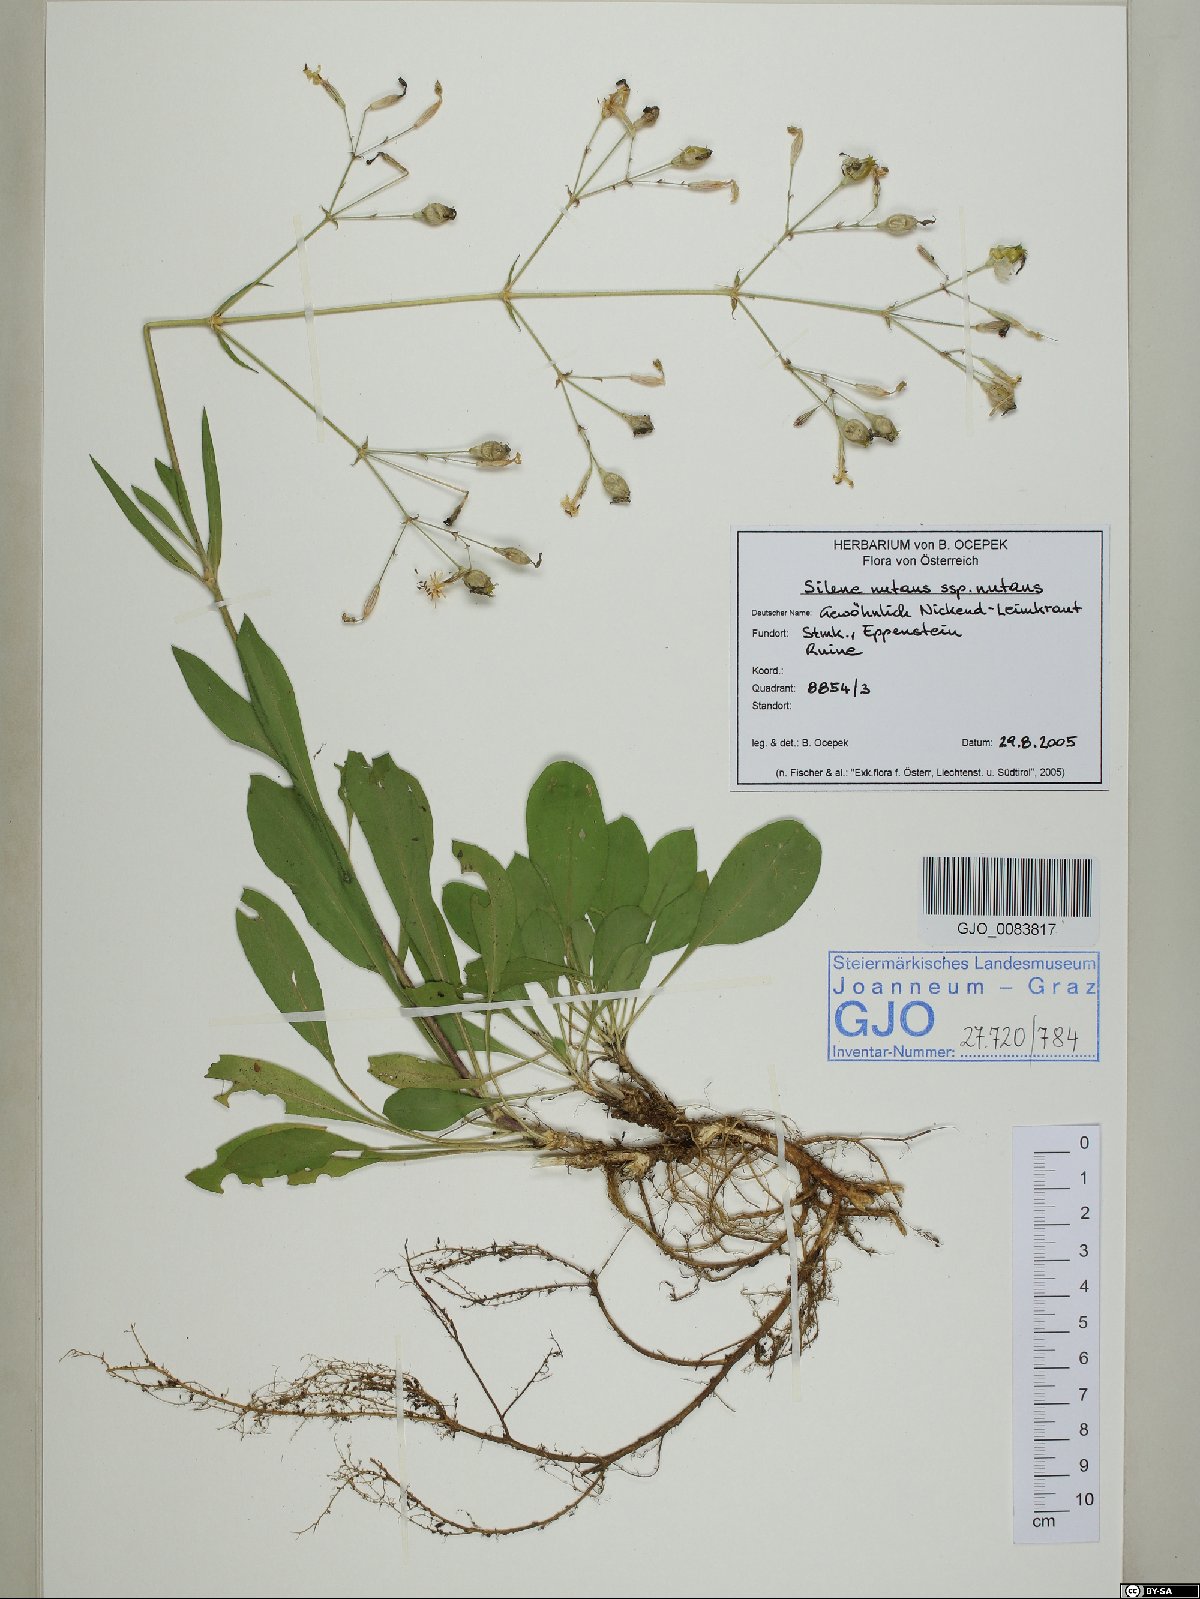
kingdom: Plantae
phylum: Tracheophyta
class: Magnoliopsida
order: Caryophyllales
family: Caryophyllaceae
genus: Silene
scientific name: Silene nutans
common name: Nottingham catchfly
